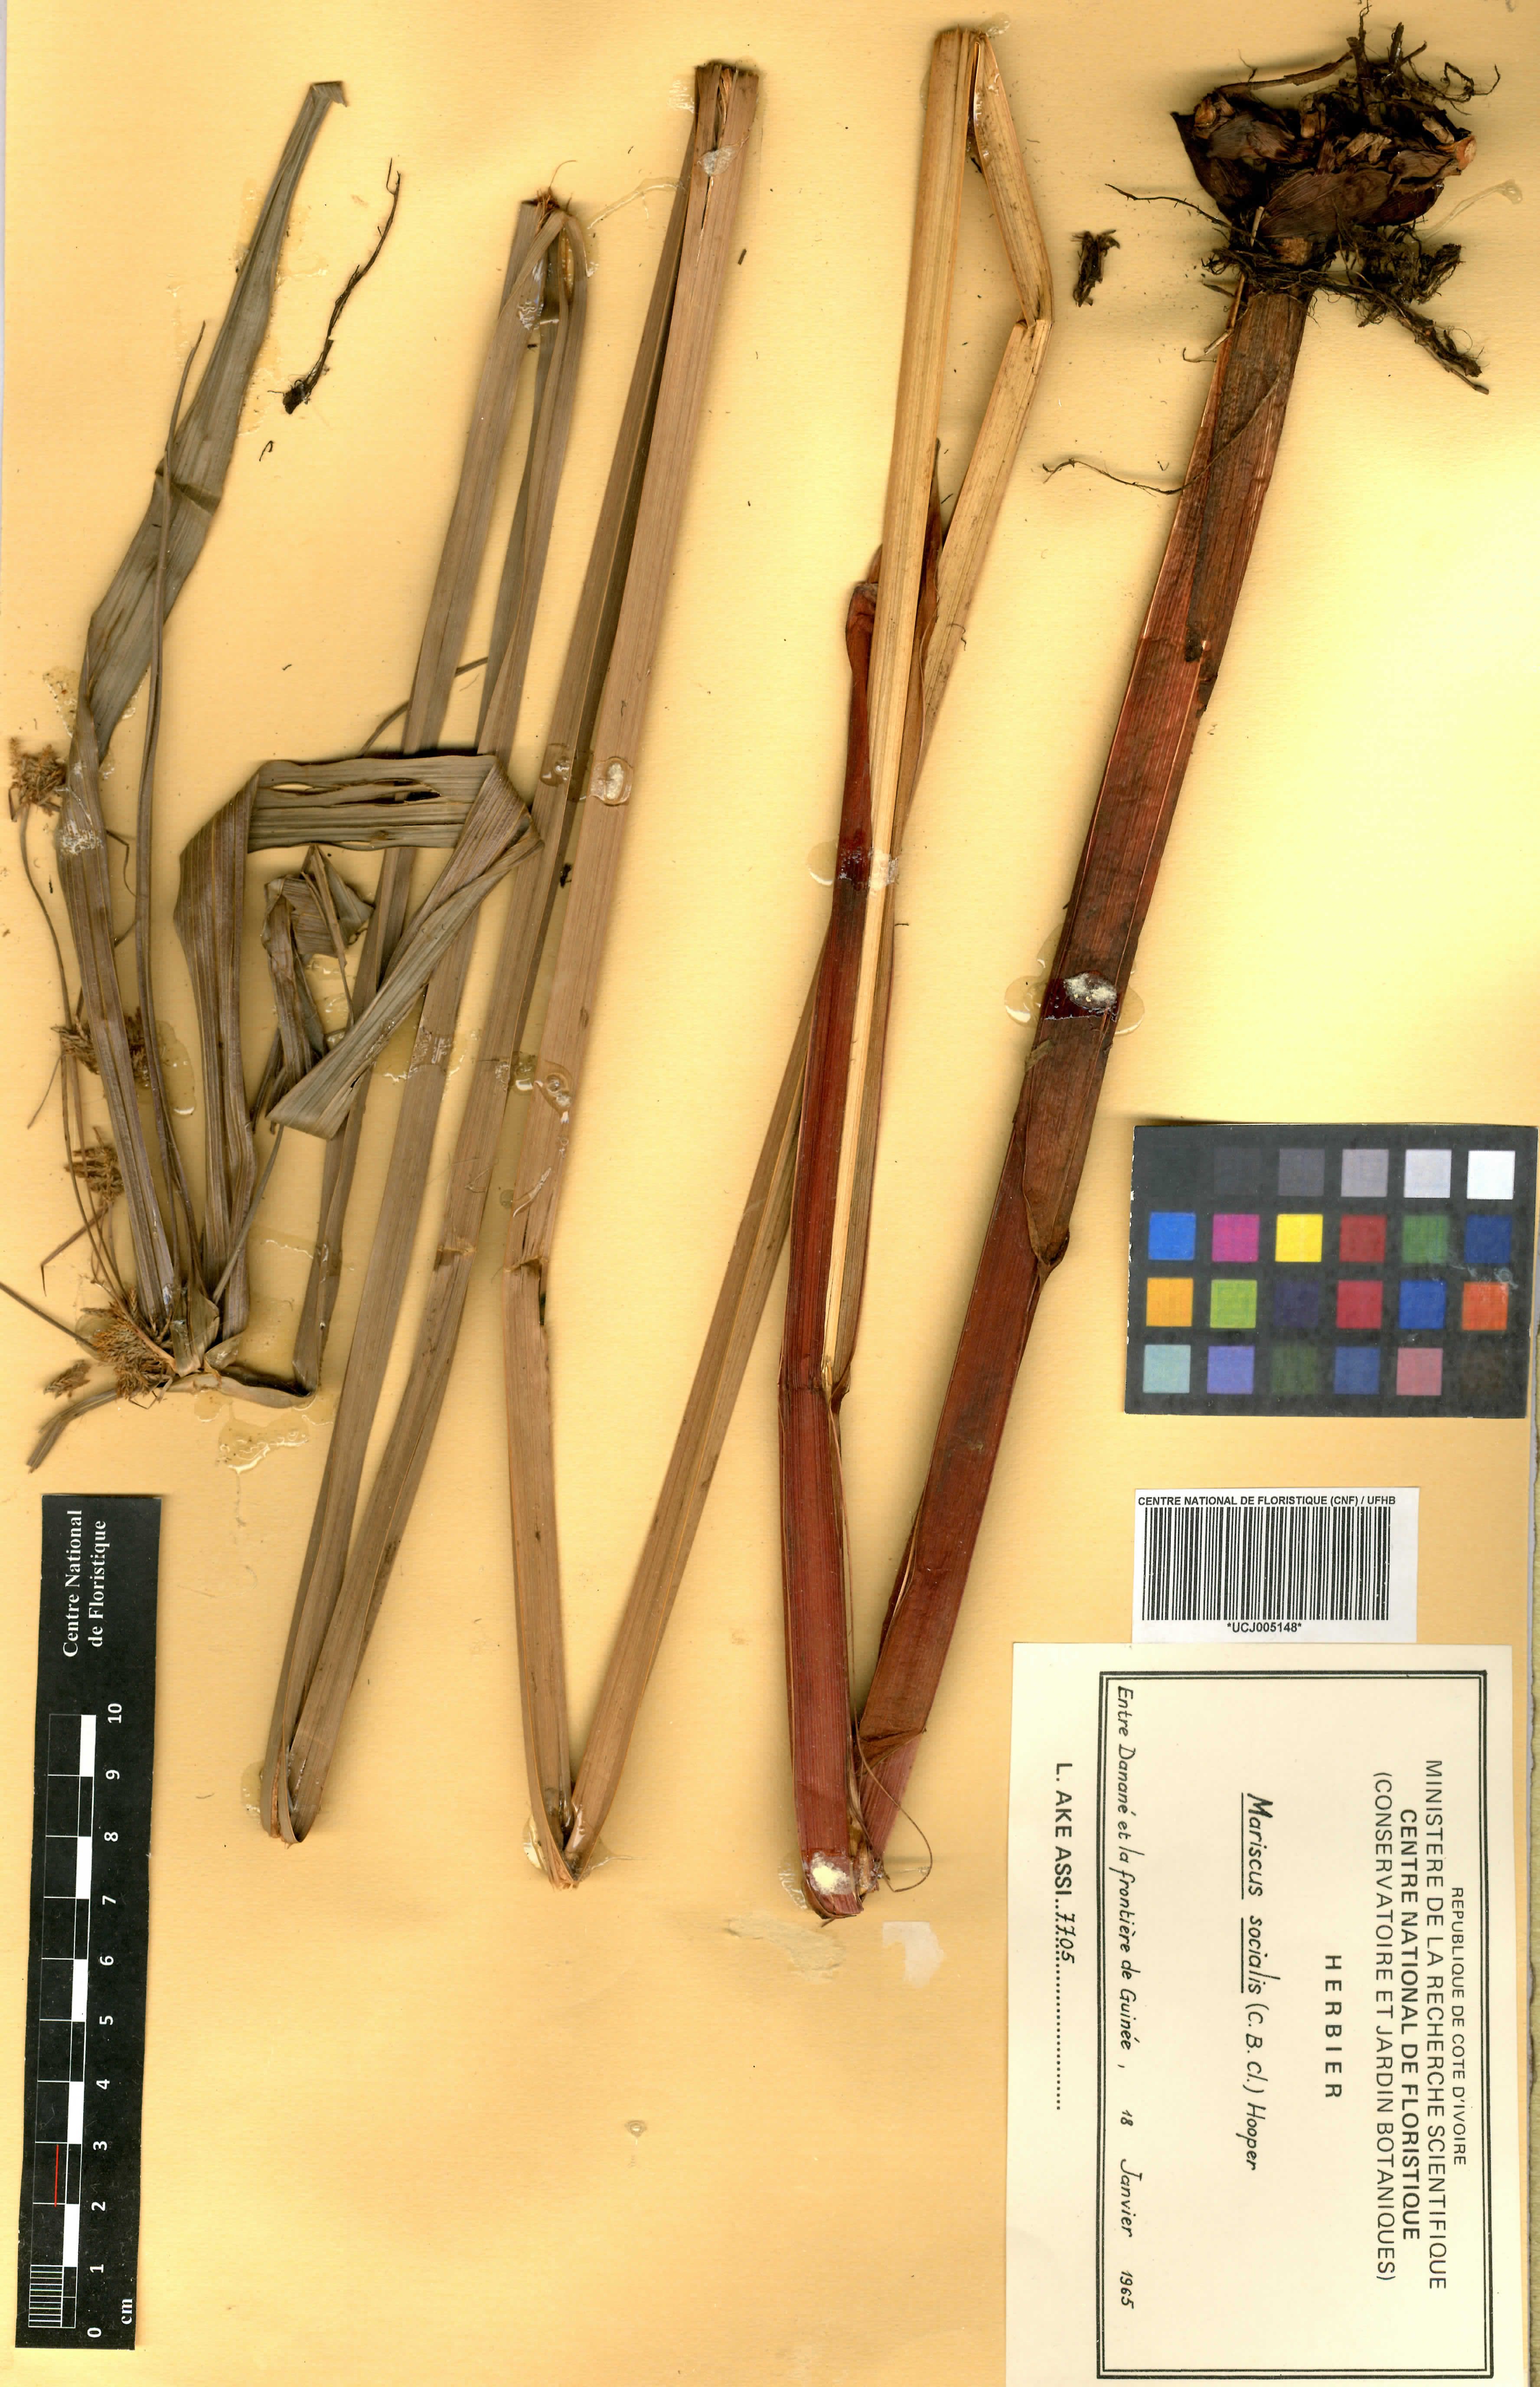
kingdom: Plantae
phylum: Tracheophyta
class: Liliopsida
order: Poales
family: Cyperaceae
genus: Cyperus
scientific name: Cyperus pseudopilosus
